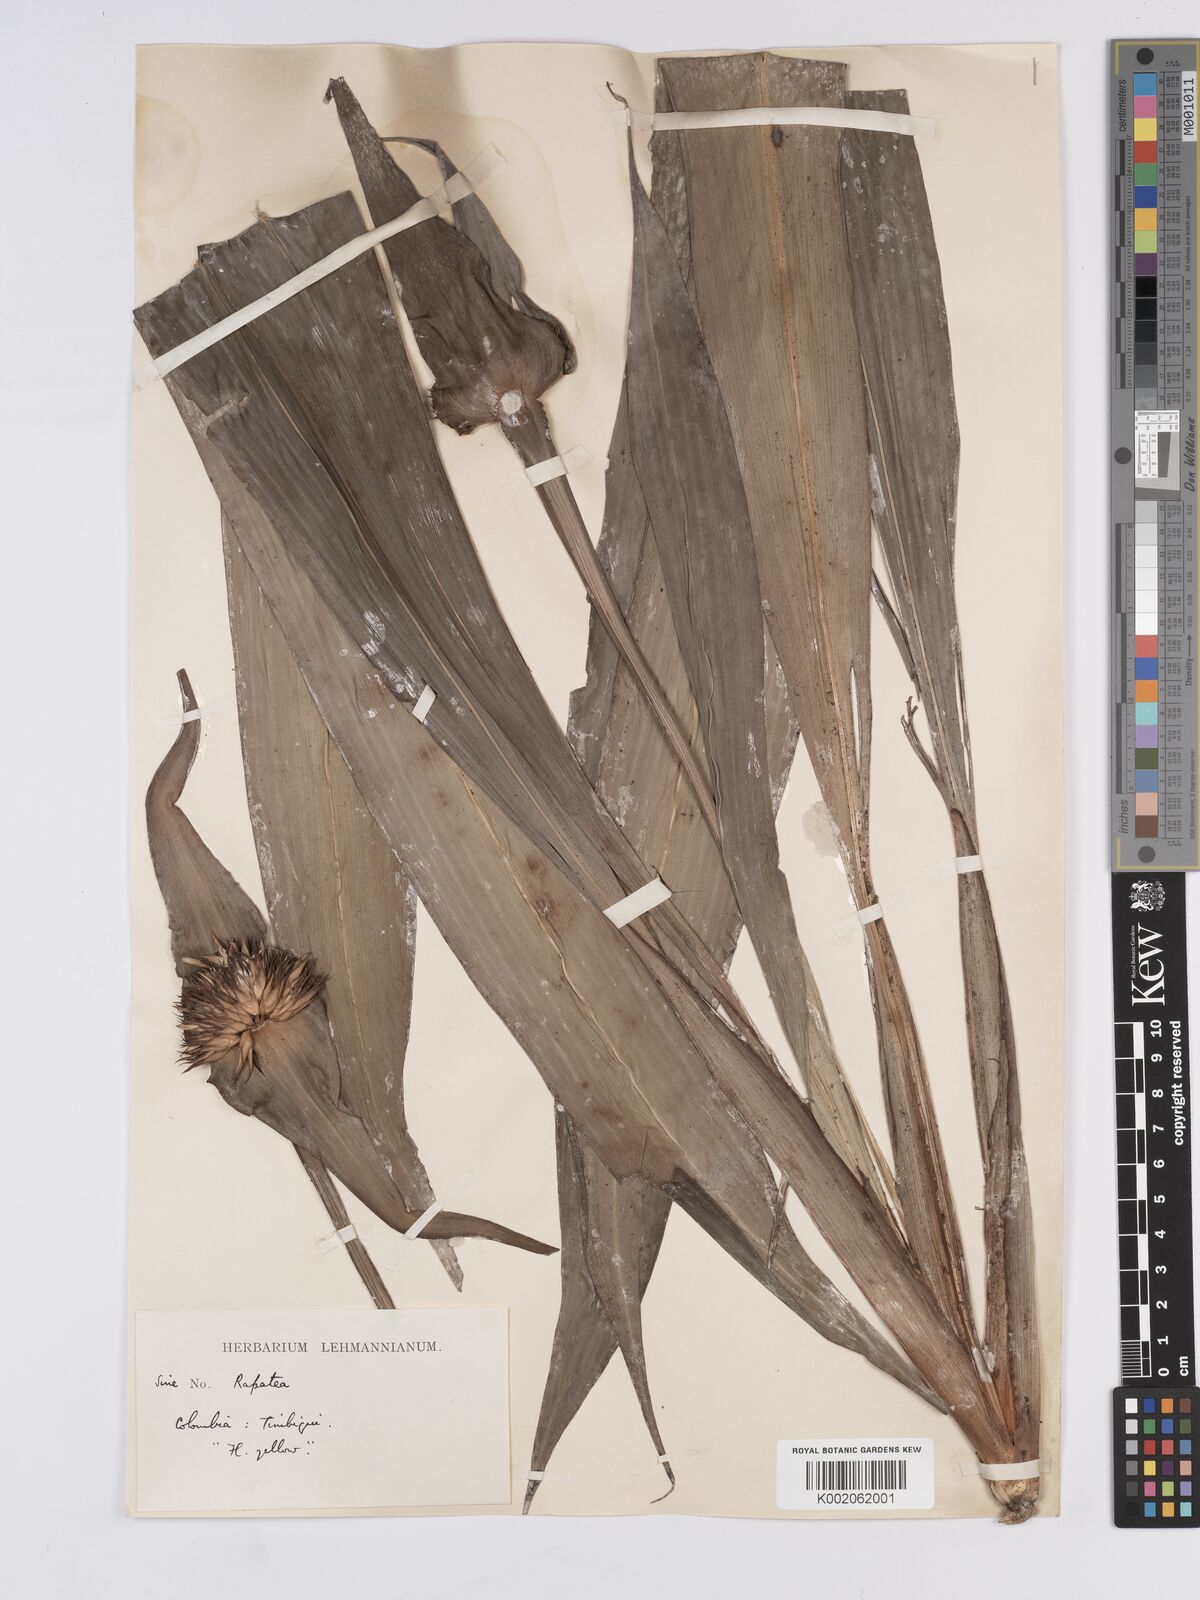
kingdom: Plantae
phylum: Tracheophyta
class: Liliopsida
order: Poales
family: Rapateaceae
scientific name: Rapateaceae
